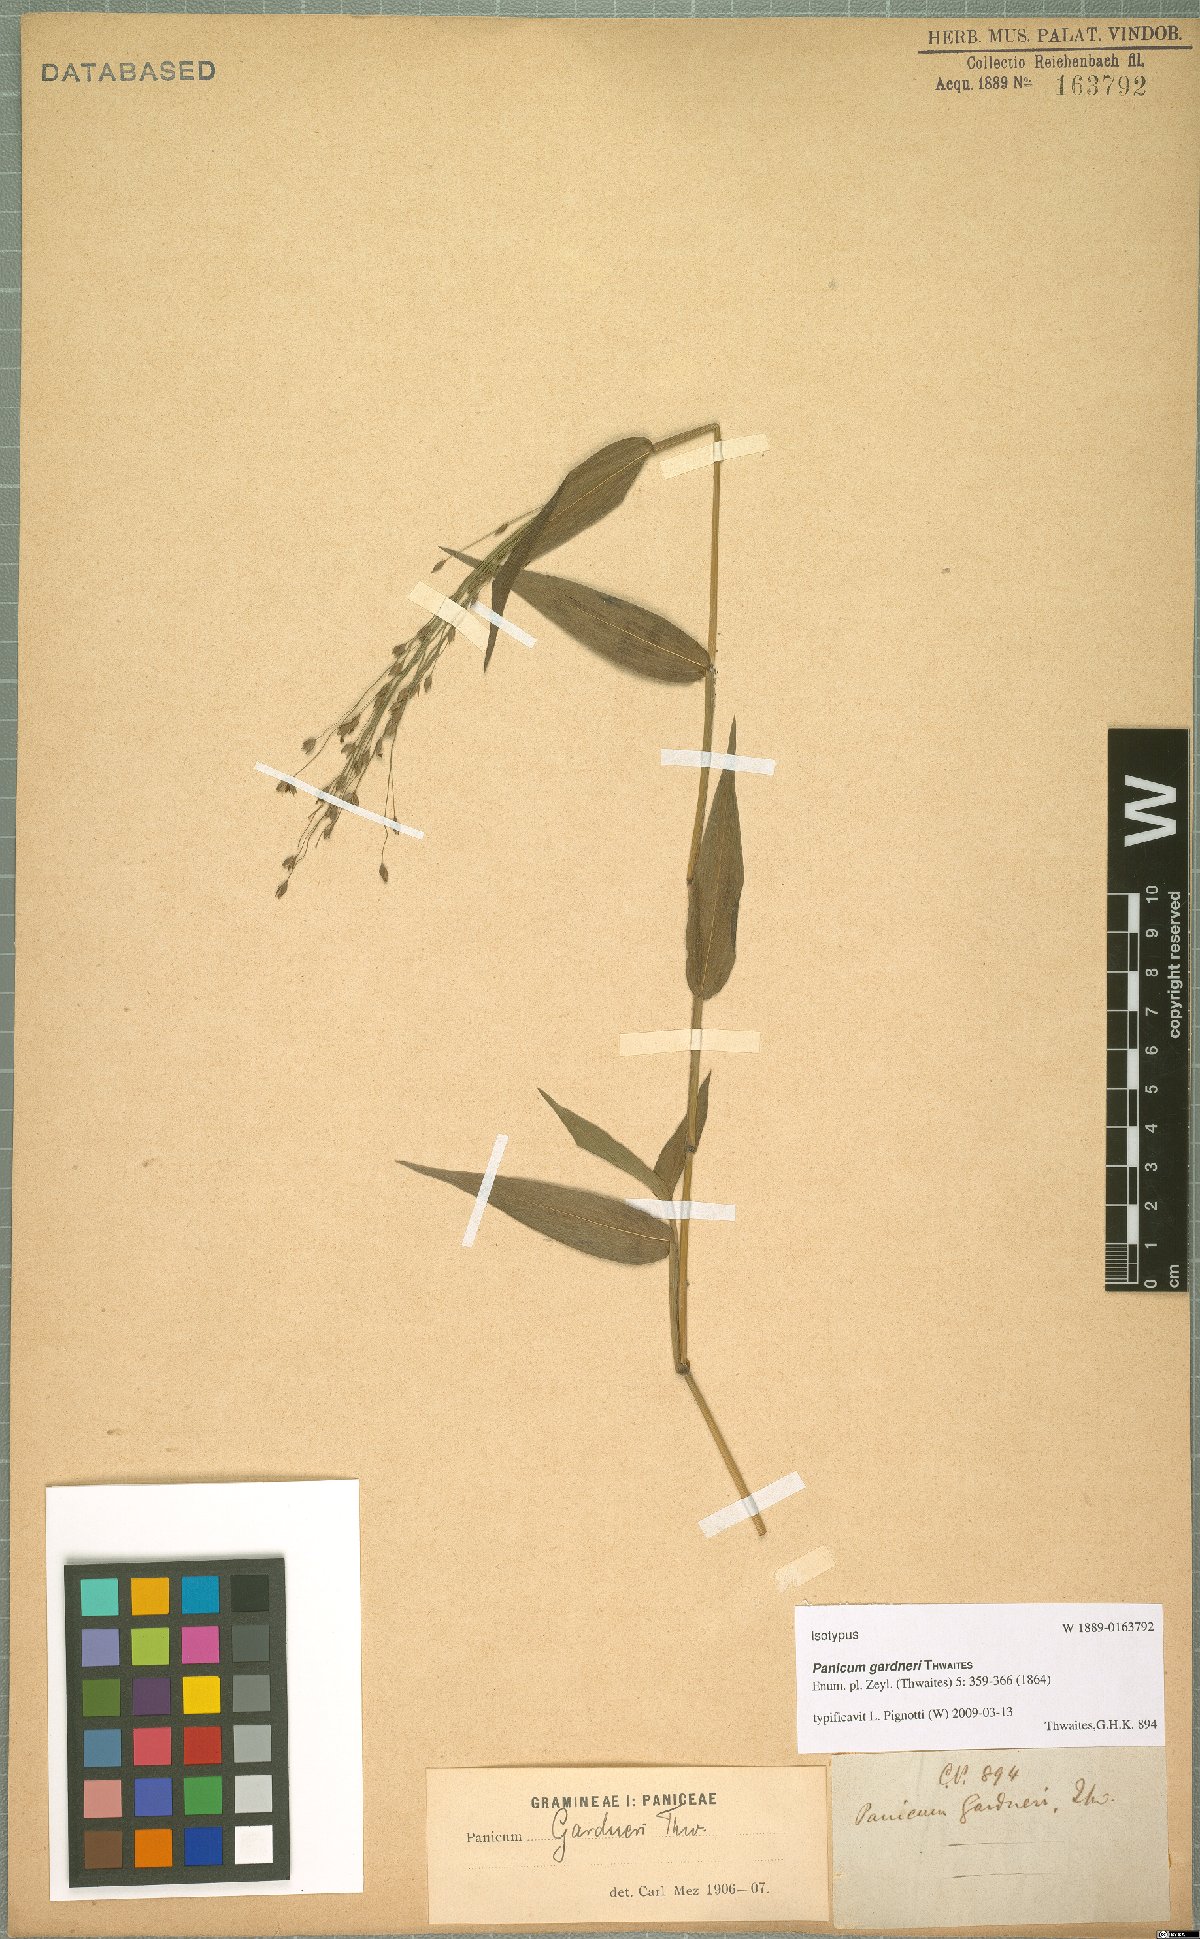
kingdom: Plantae
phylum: Tracheophyta
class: Liliopsida
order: Poales
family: Poaceae
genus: Panicum
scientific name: Panicum gardneri
